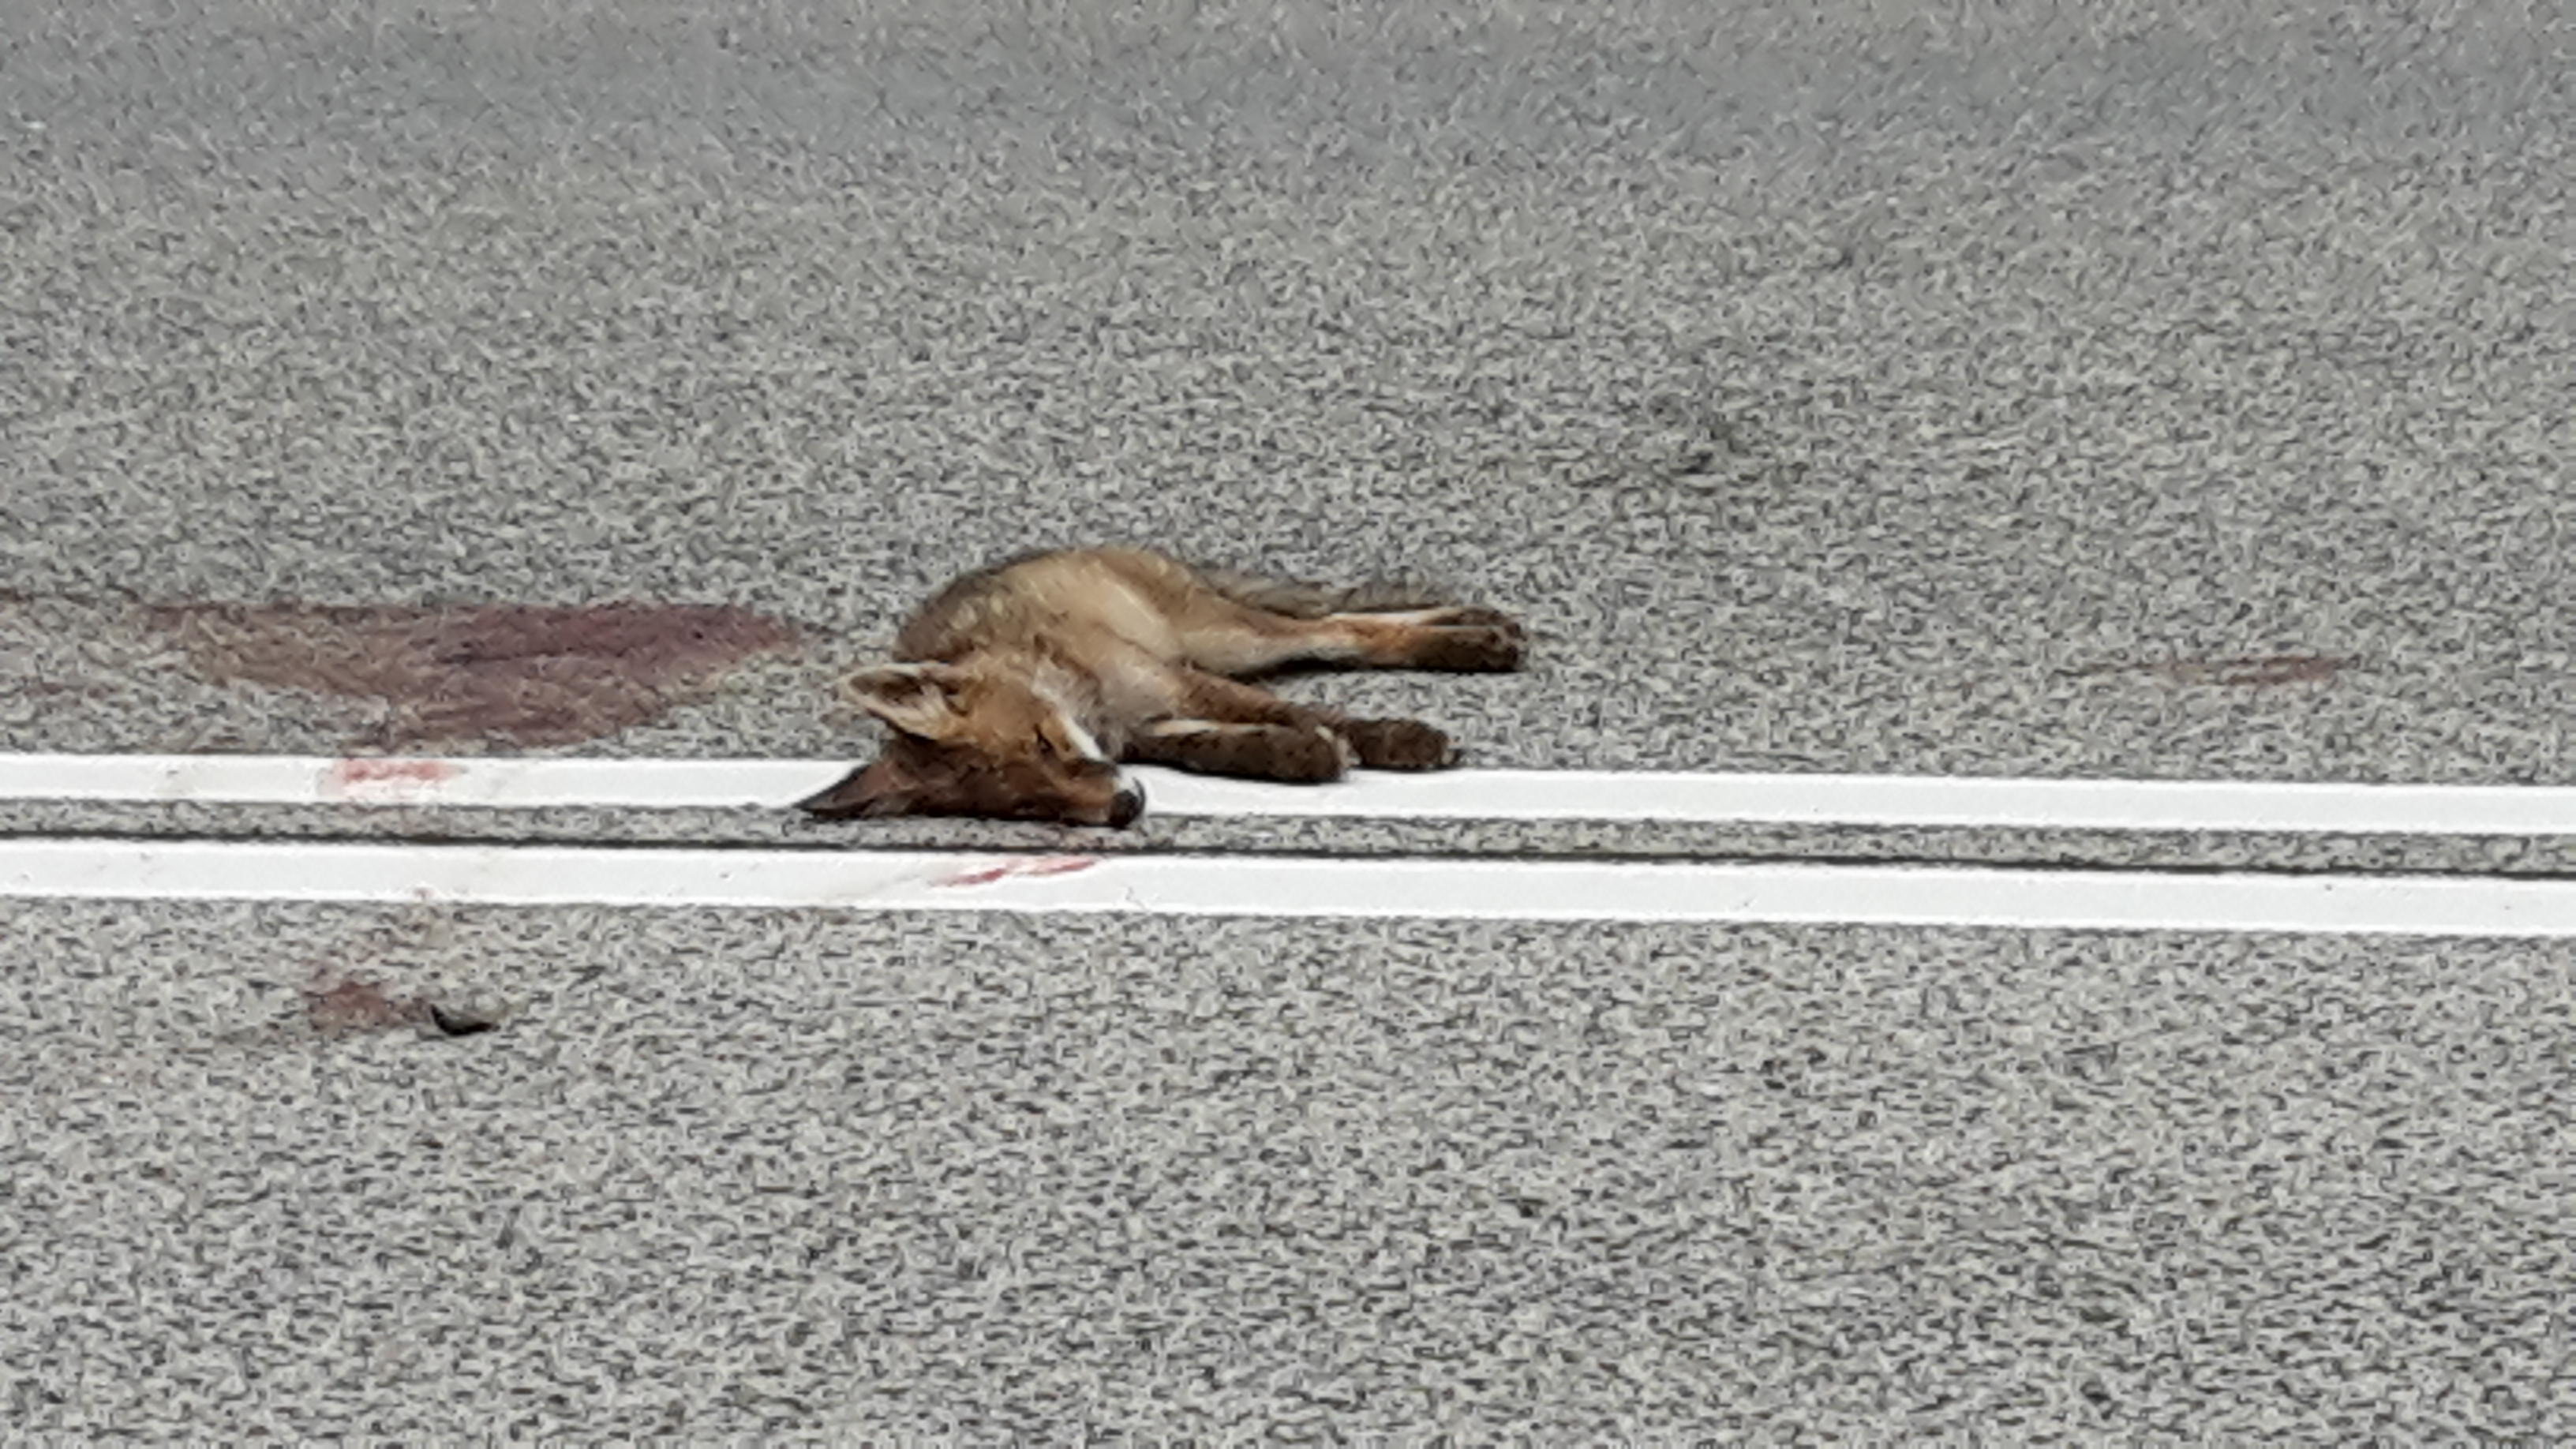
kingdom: Animalia
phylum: Chordata
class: Mammalia
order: Carnivora
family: Canidae
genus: Vulpes
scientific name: Vulpes vulpes
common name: Red fox
